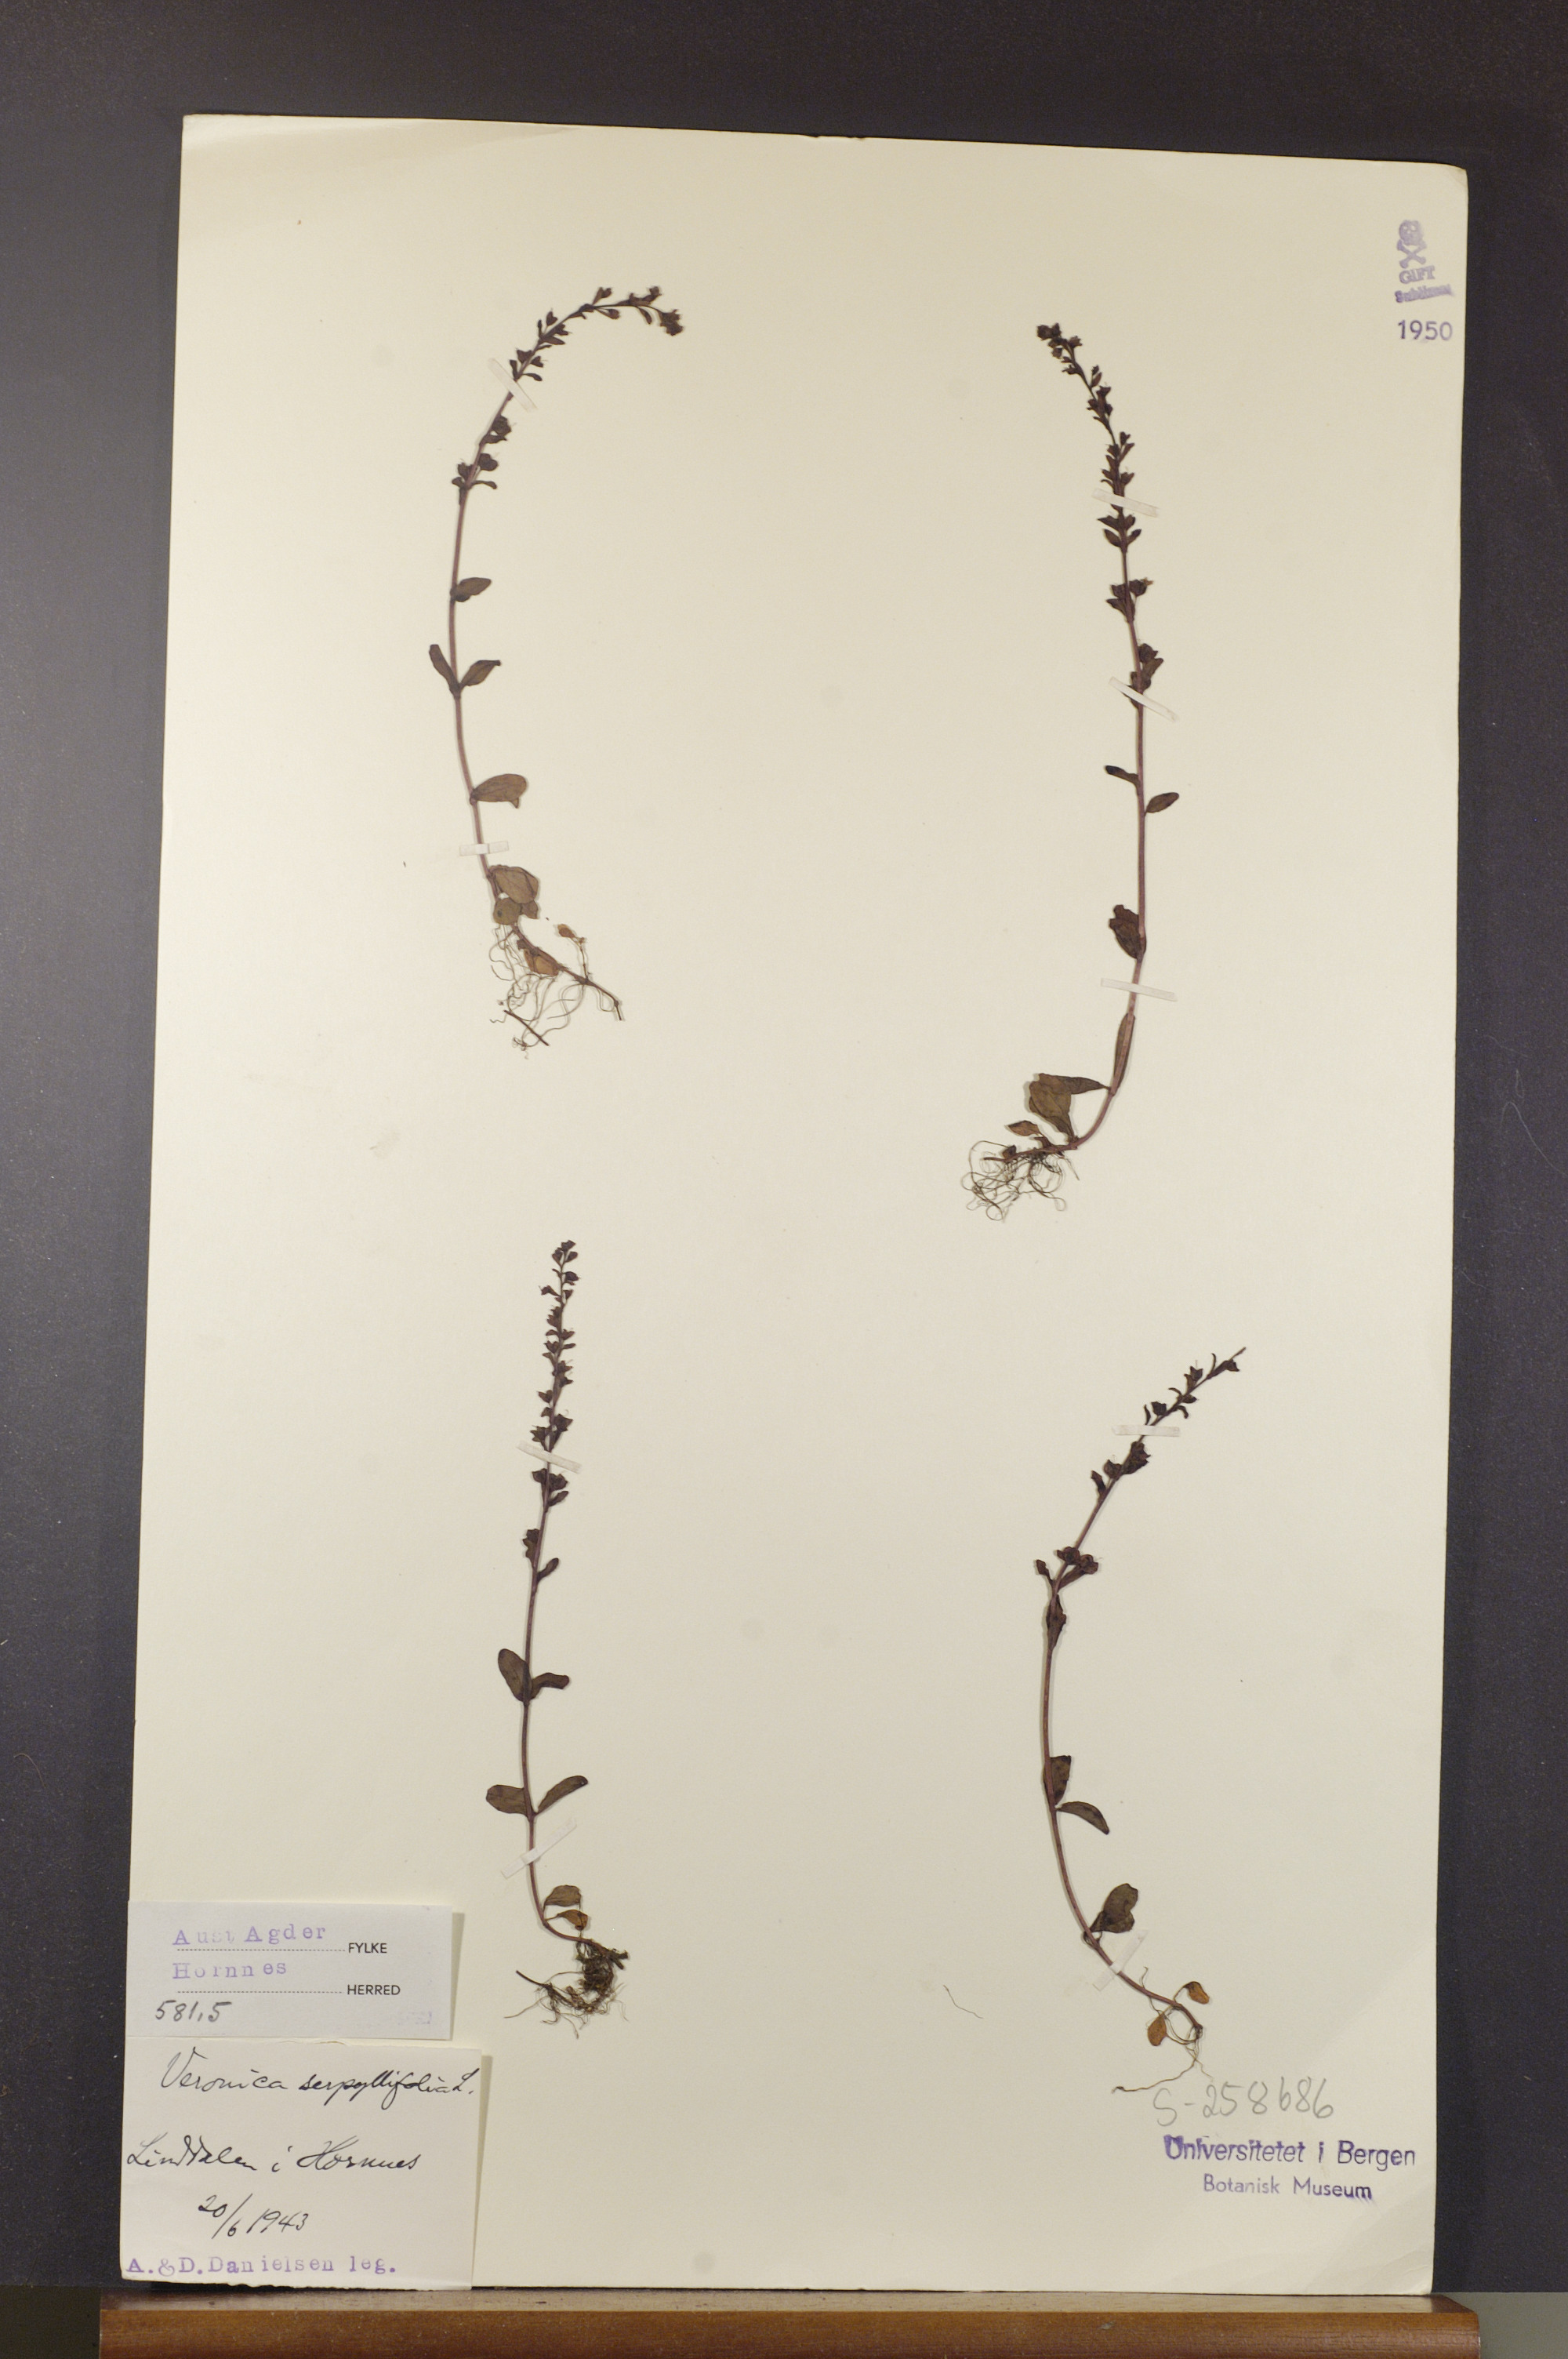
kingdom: Plantae
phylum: Tracheophyta
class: Magnoliopsida
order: Lamiales
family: Plantaginaceae
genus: Veronica
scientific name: Veronica serpyllifolia
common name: Thyme-leaved speedwell
